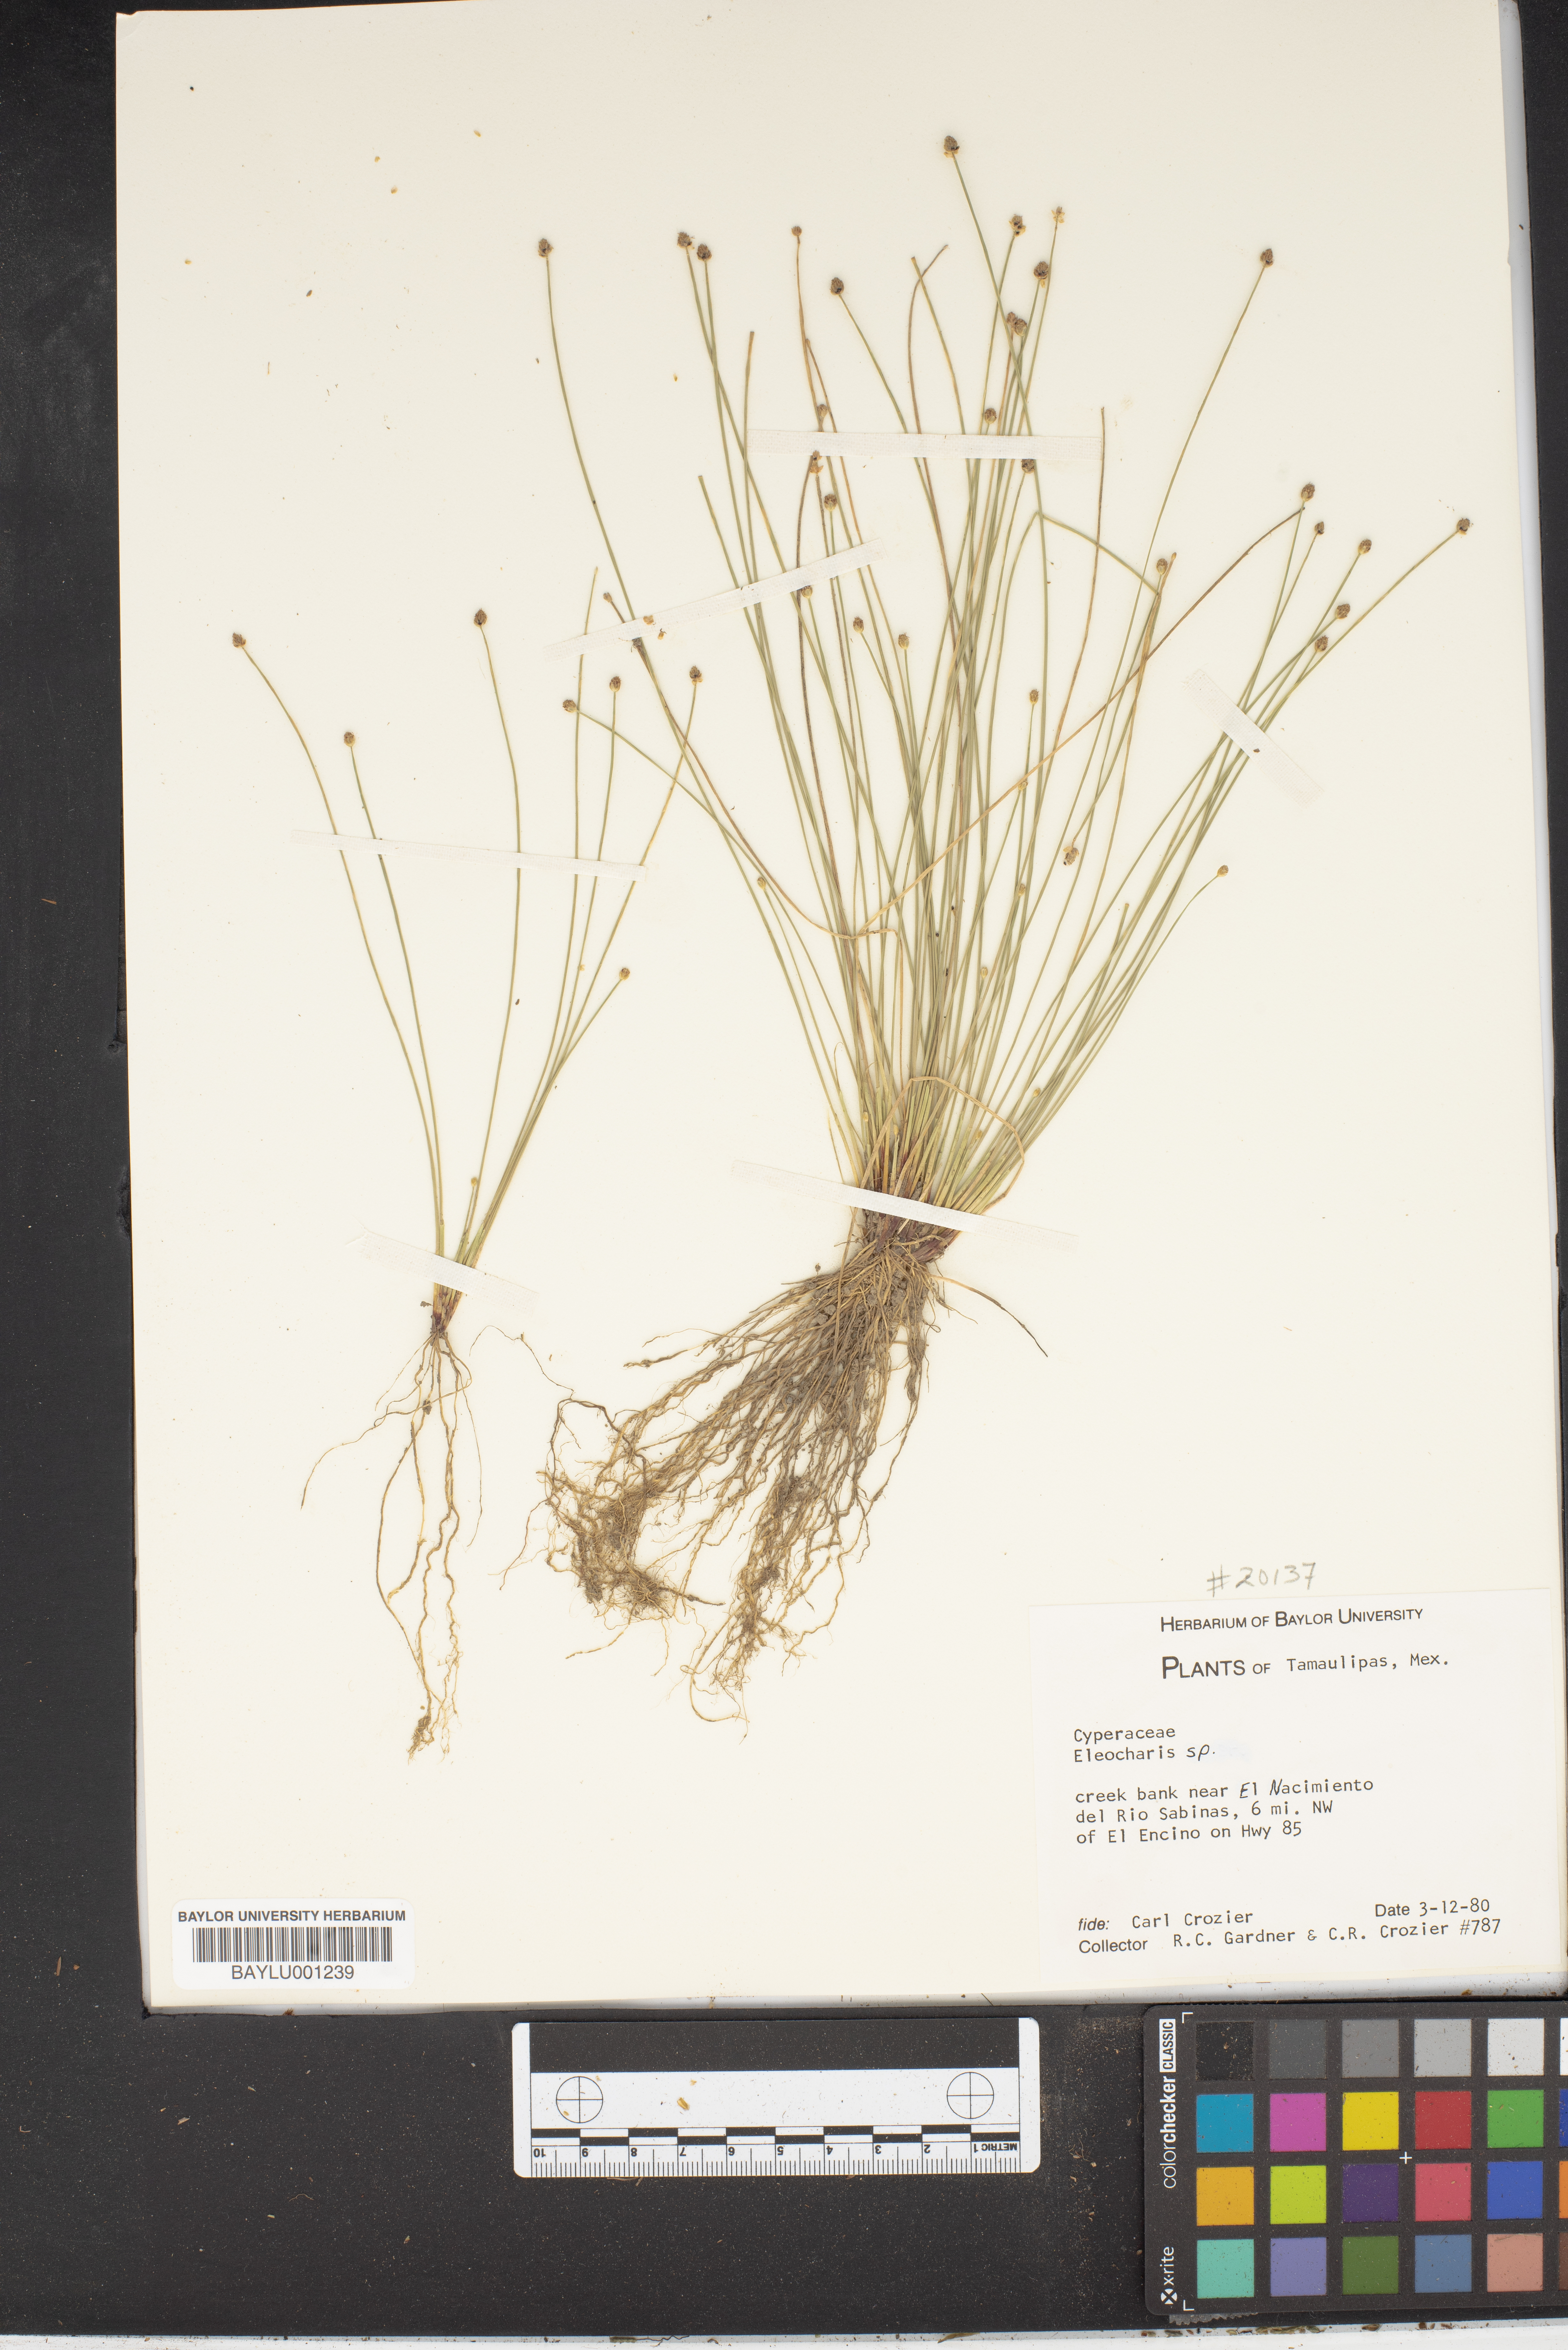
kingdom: Plantae
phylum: Tracheophyta
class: Liliopsida
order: Poales
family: Cyperaceae
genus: Eleocharis
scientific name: Eleocharis
